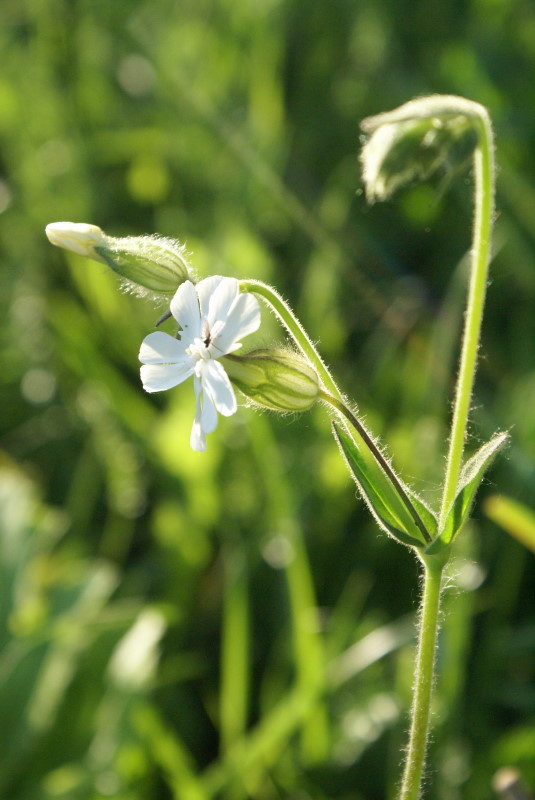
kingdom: Plantae
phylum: Tracheophyta
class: Magnoliopsida
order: Caryophyllales
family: Caryophyllaceae
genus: Silene
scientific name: Silene behen
